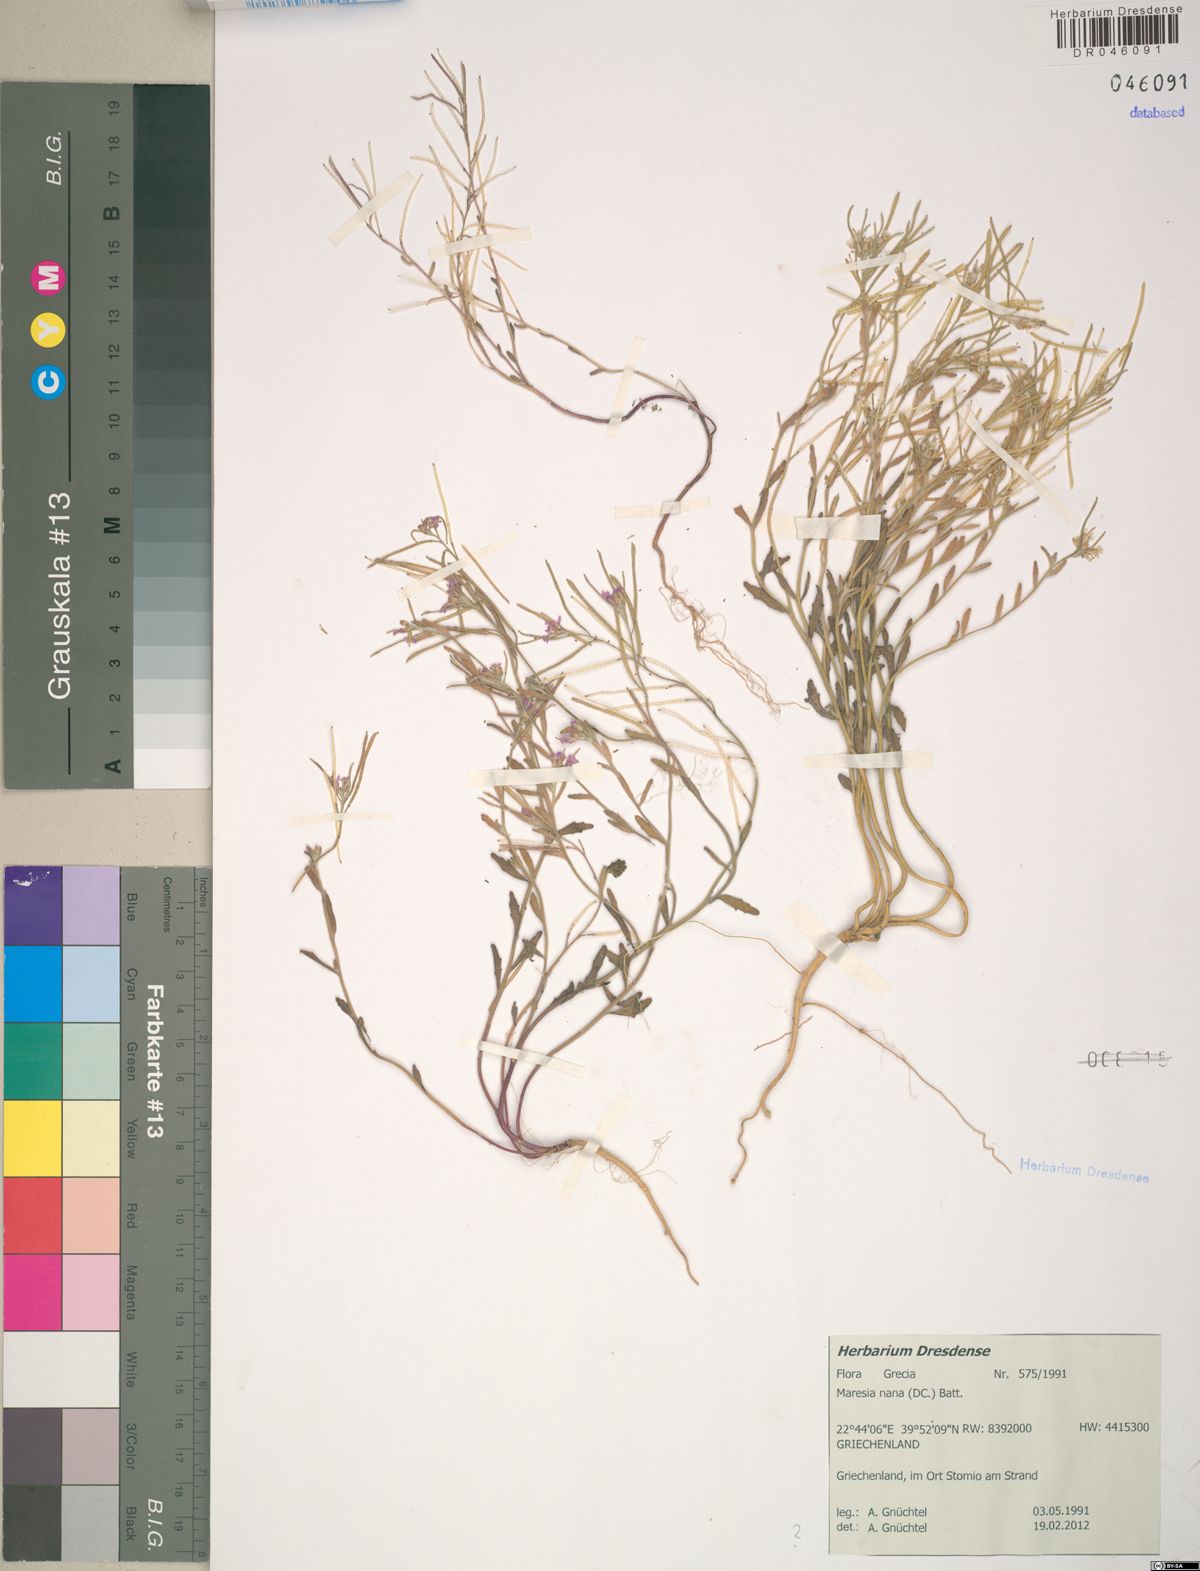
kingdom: Plantae
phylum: Tracheophyta
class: Magnoliopsida
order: Brassicales
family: Brassicaceae
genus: Maresia
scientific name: Maresia nana
